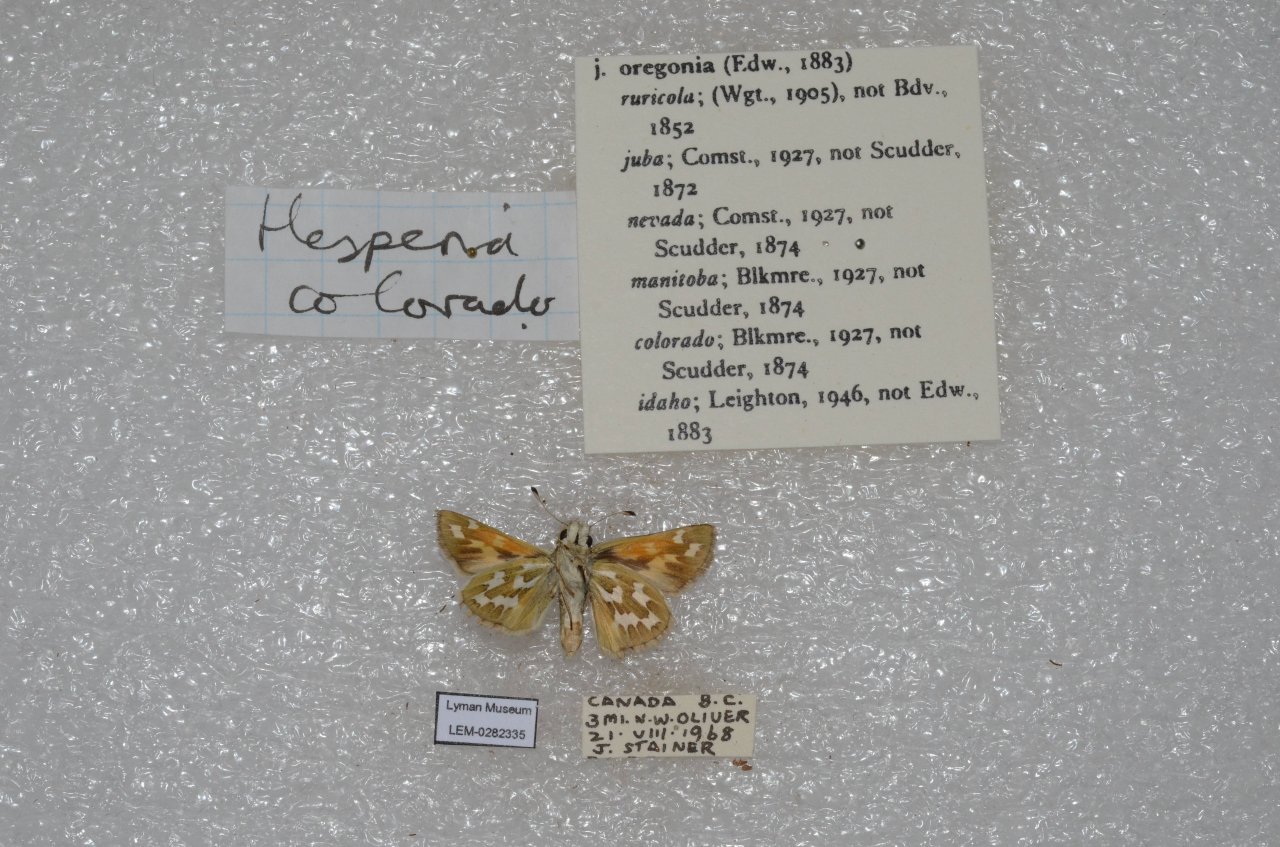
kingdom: Animalia
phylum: Arthropoda
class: Insecta
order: Lepidoptera
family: Hesperiidae
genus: Hesperia
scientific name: Hesperia comma
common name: Western Branded Skipper
